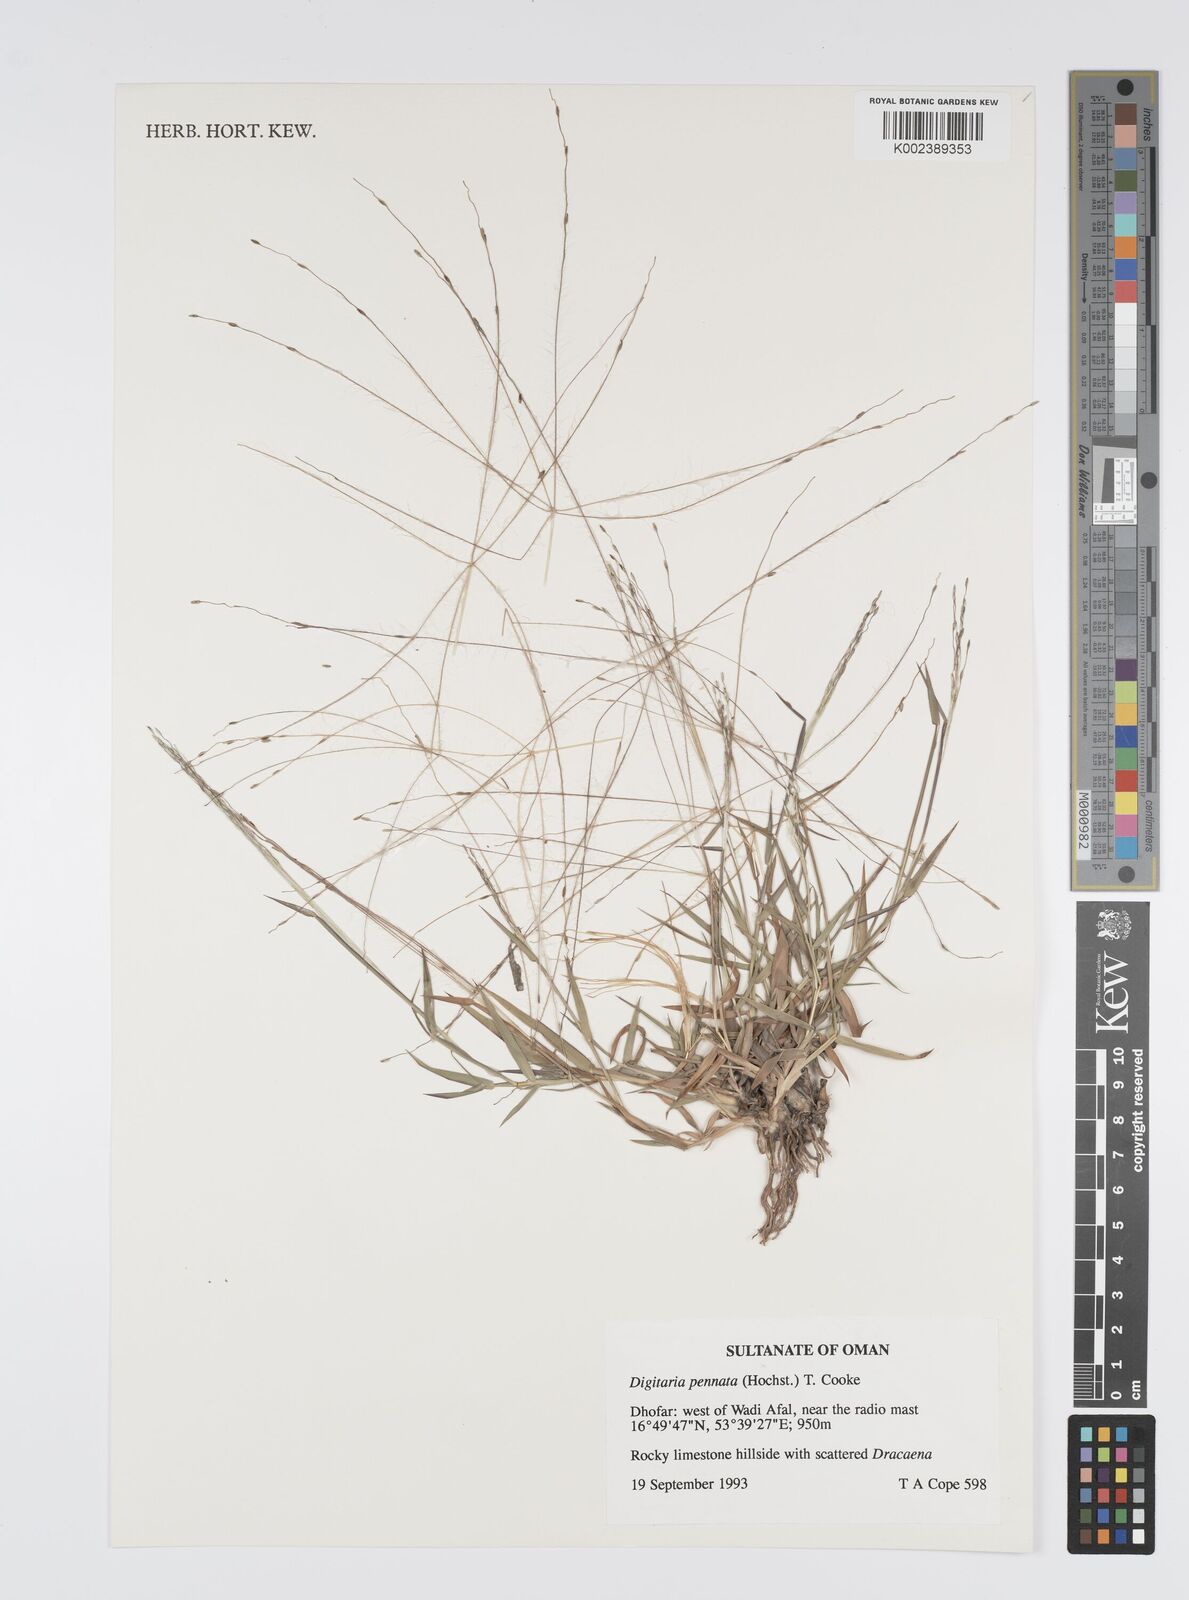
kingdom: Plantae
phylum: Tracheophyta
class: Liliopsida
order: Poales
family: Poaceae
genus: Digitaria
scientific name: Digitaria pennata
